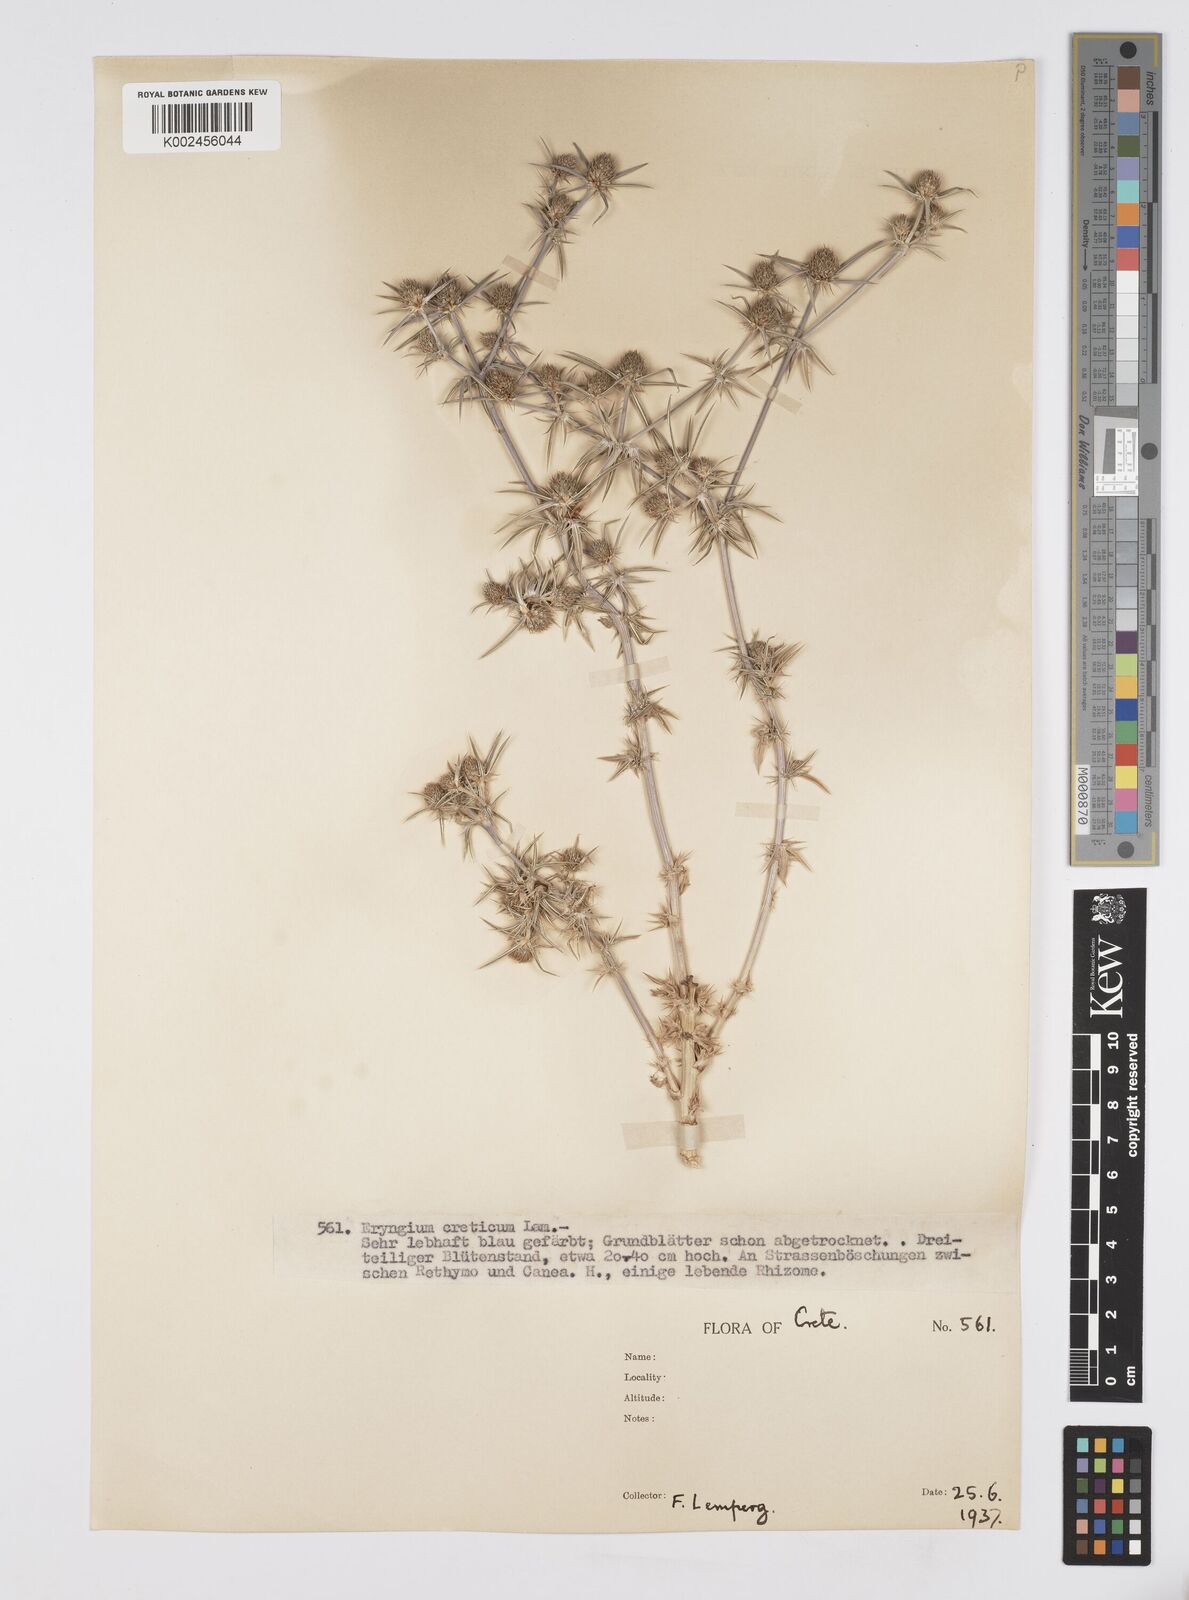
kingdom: Plantae
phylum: Tracheophyta
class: Magnoliopsida
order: Apiales
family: Apiaceae
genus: Eryngium
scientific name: Eryngium creticum
